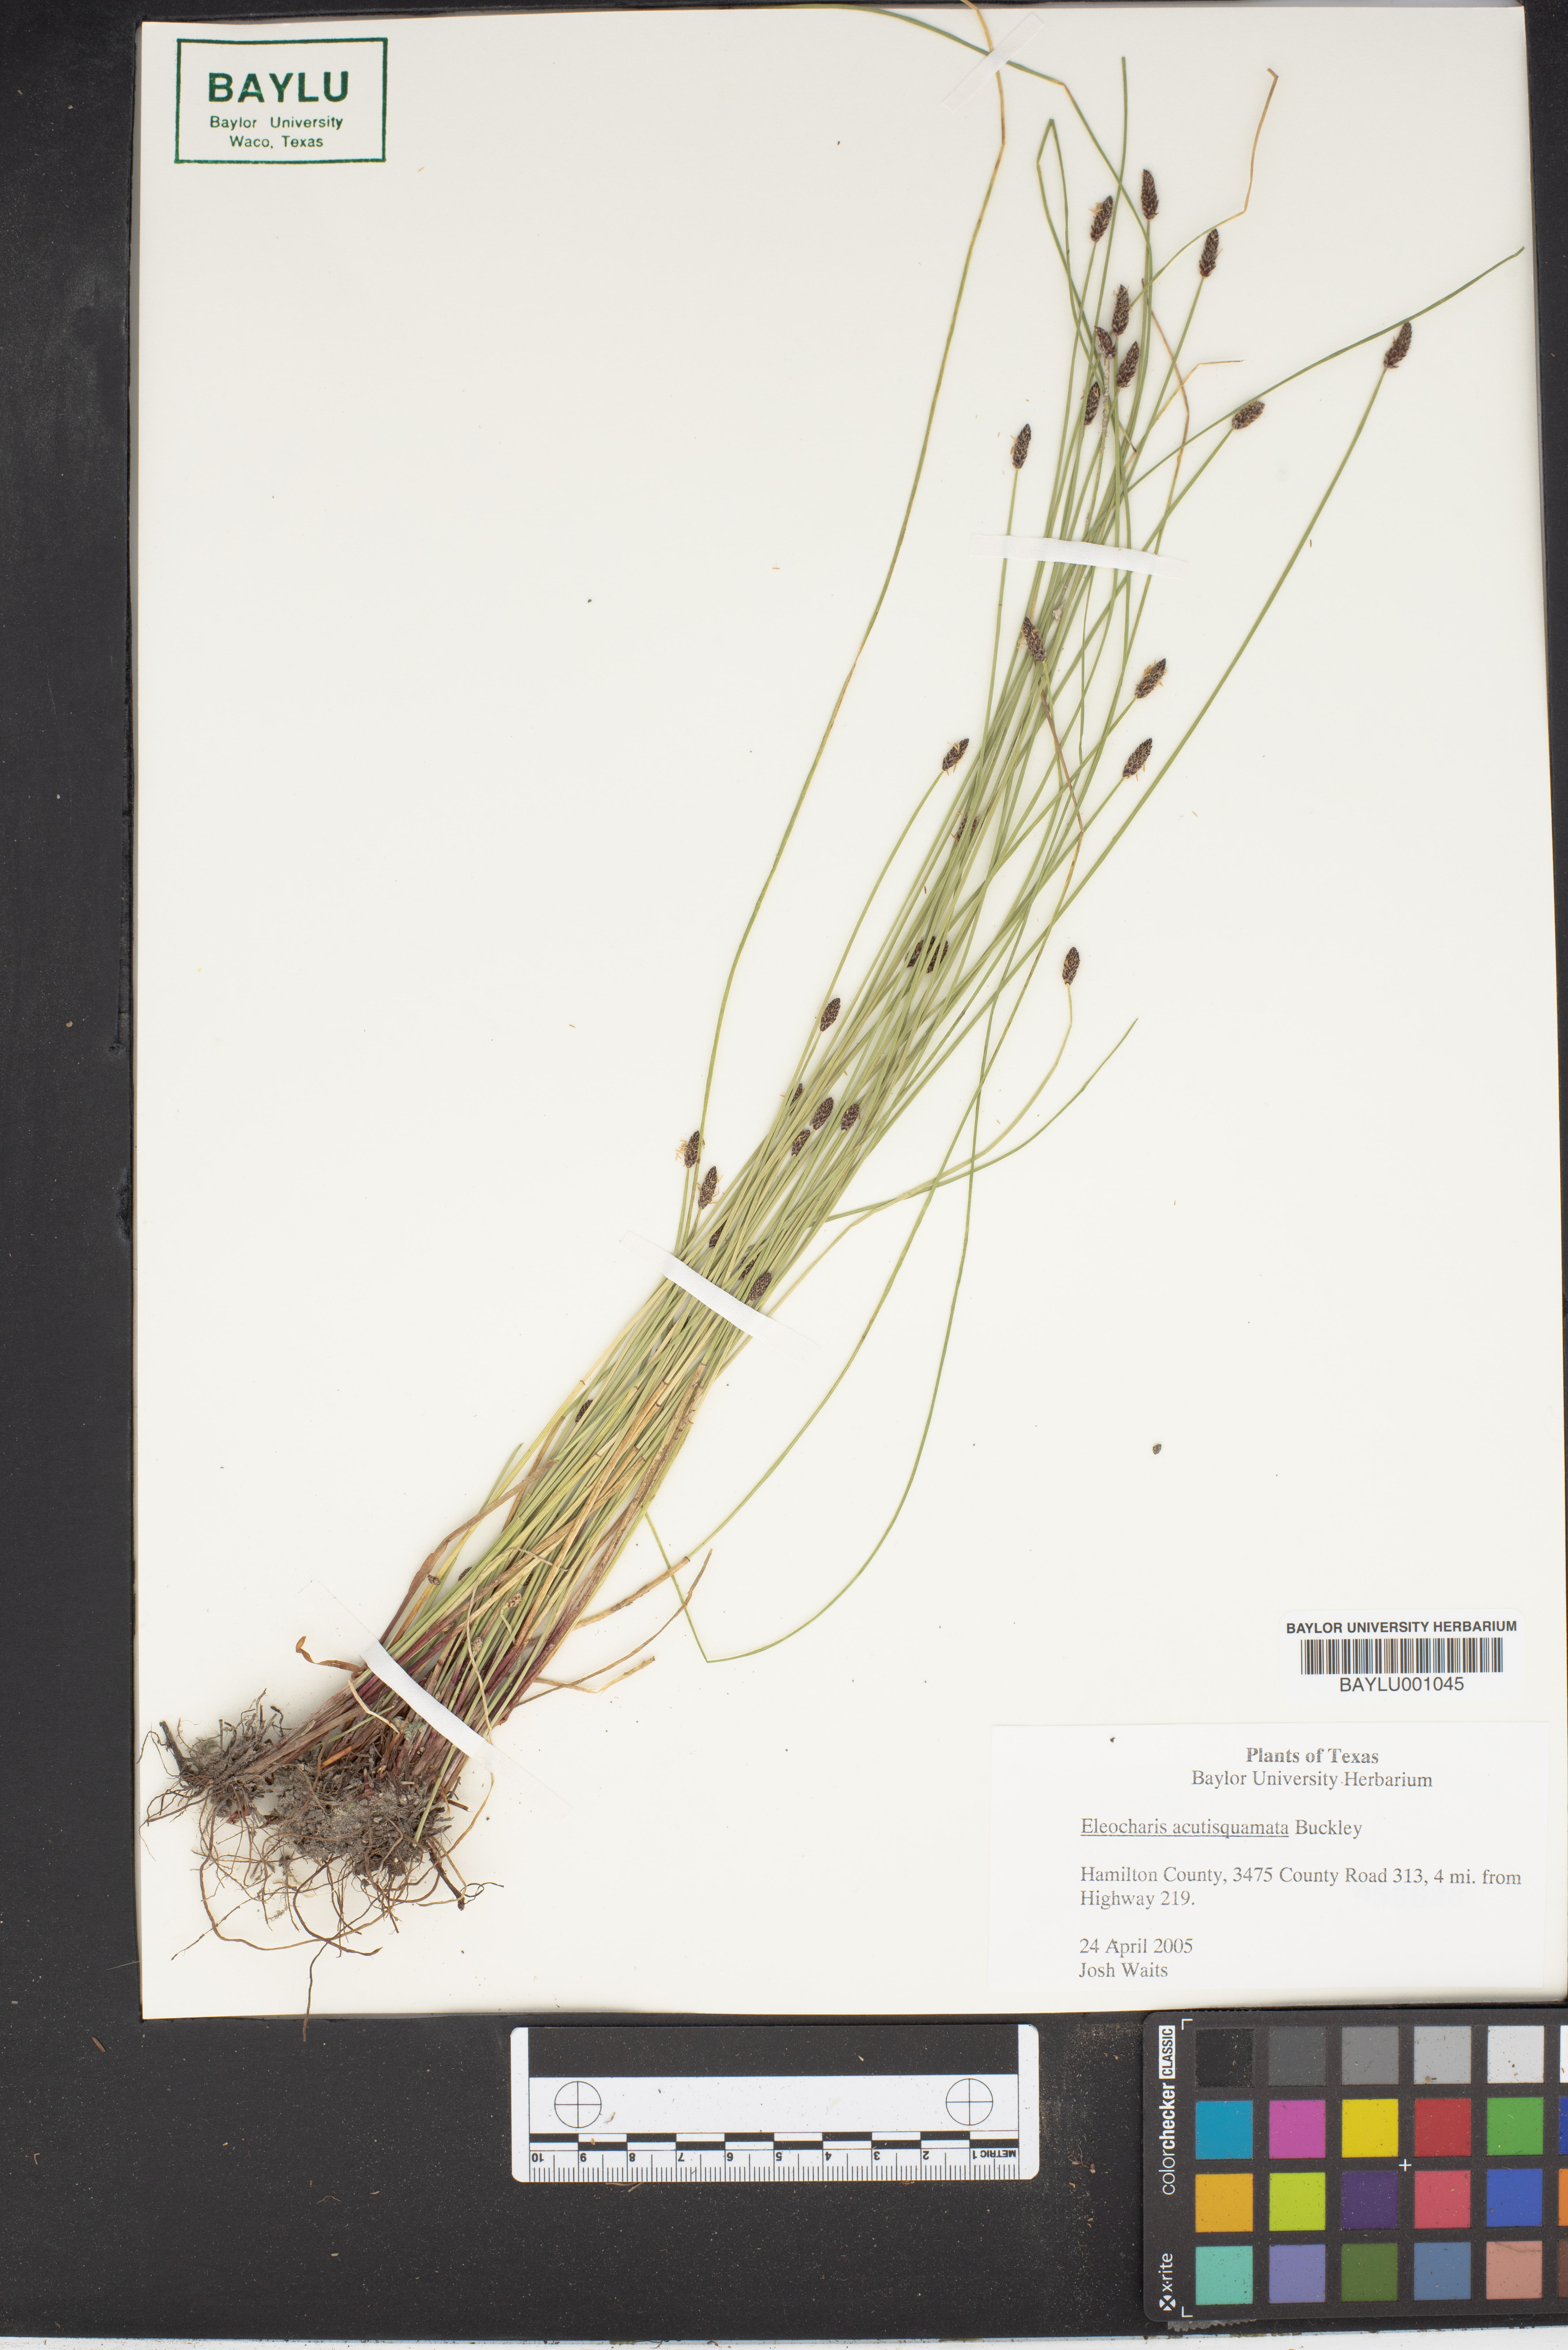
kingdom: Plantae
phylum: Tracheophyta
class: Liliopsida
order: Poales
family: Cyperaceae
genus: Eleocharis
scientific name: Eleocharis compressa
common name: Flat-stem spike-rush
